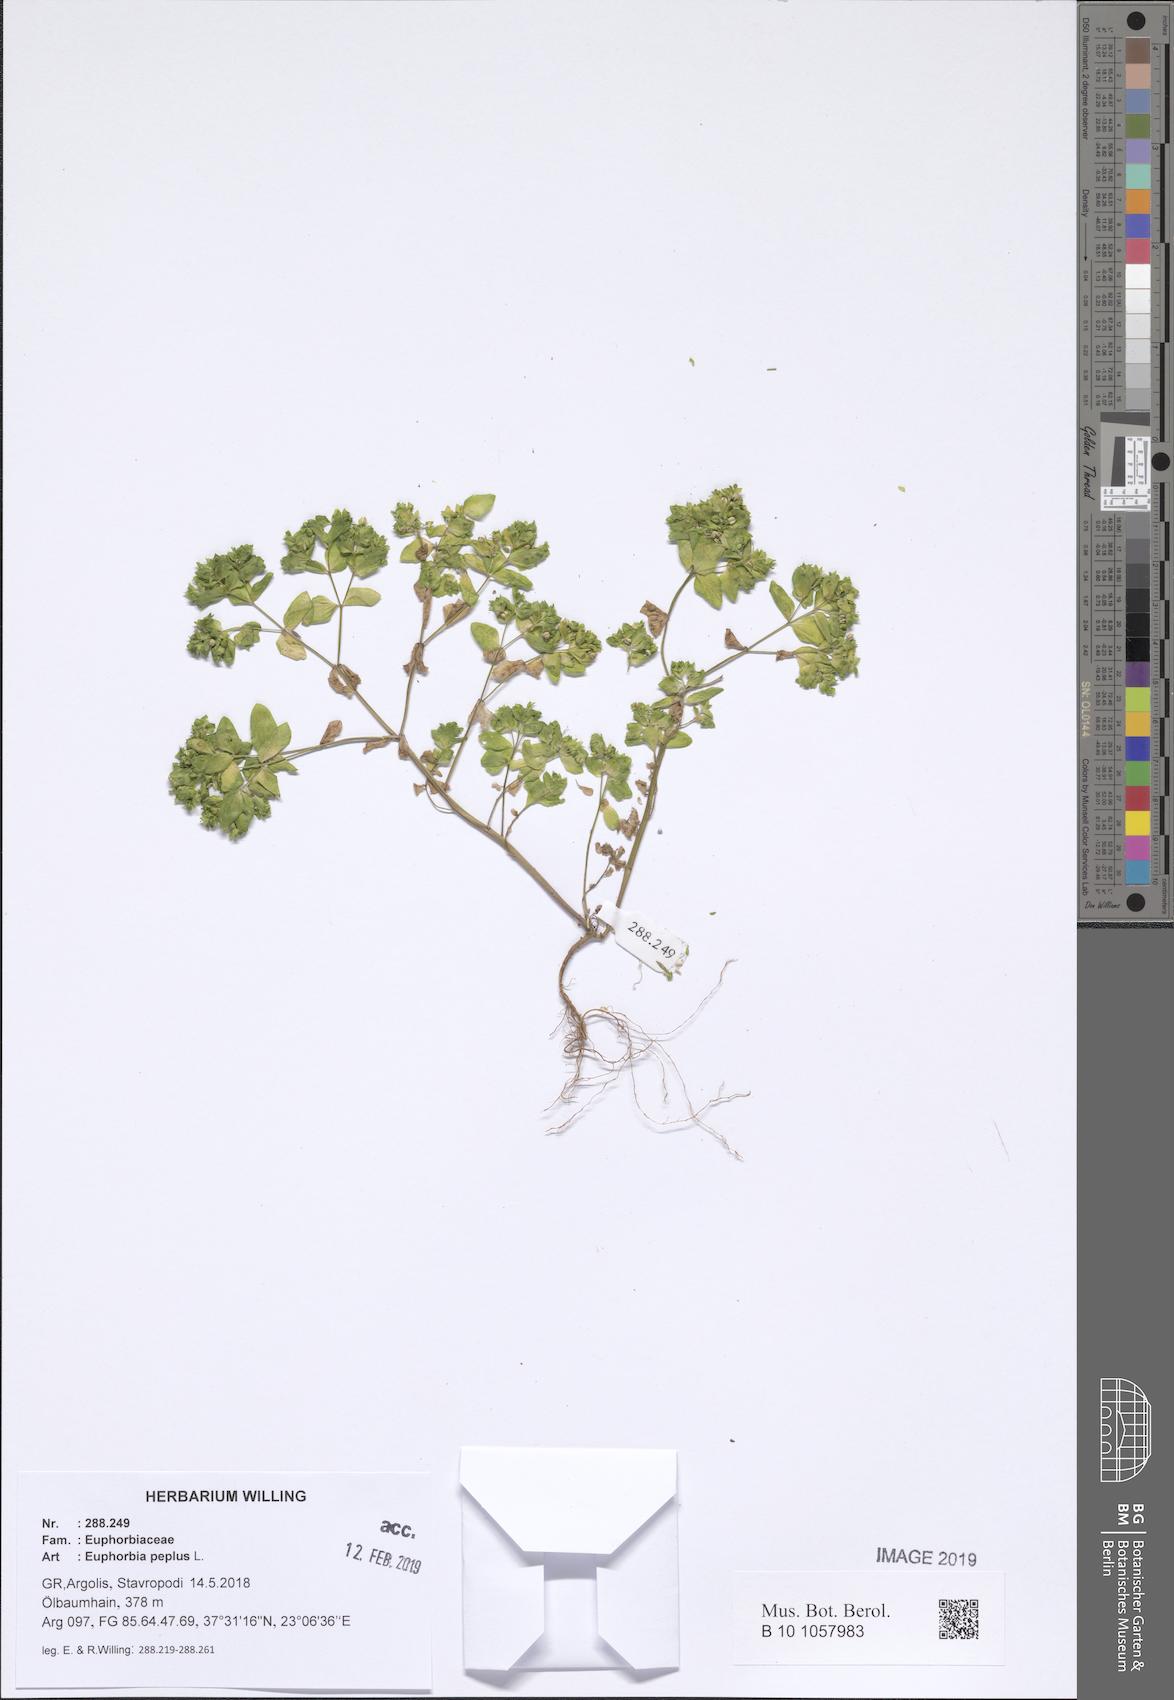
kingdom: Plantae
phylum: Tracheophyta
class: Magnoliopsida
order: Malpighiales
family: Euphorbiaceae
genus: Euphorbia
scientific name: Euphorbia peplus
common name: Petty spurge
